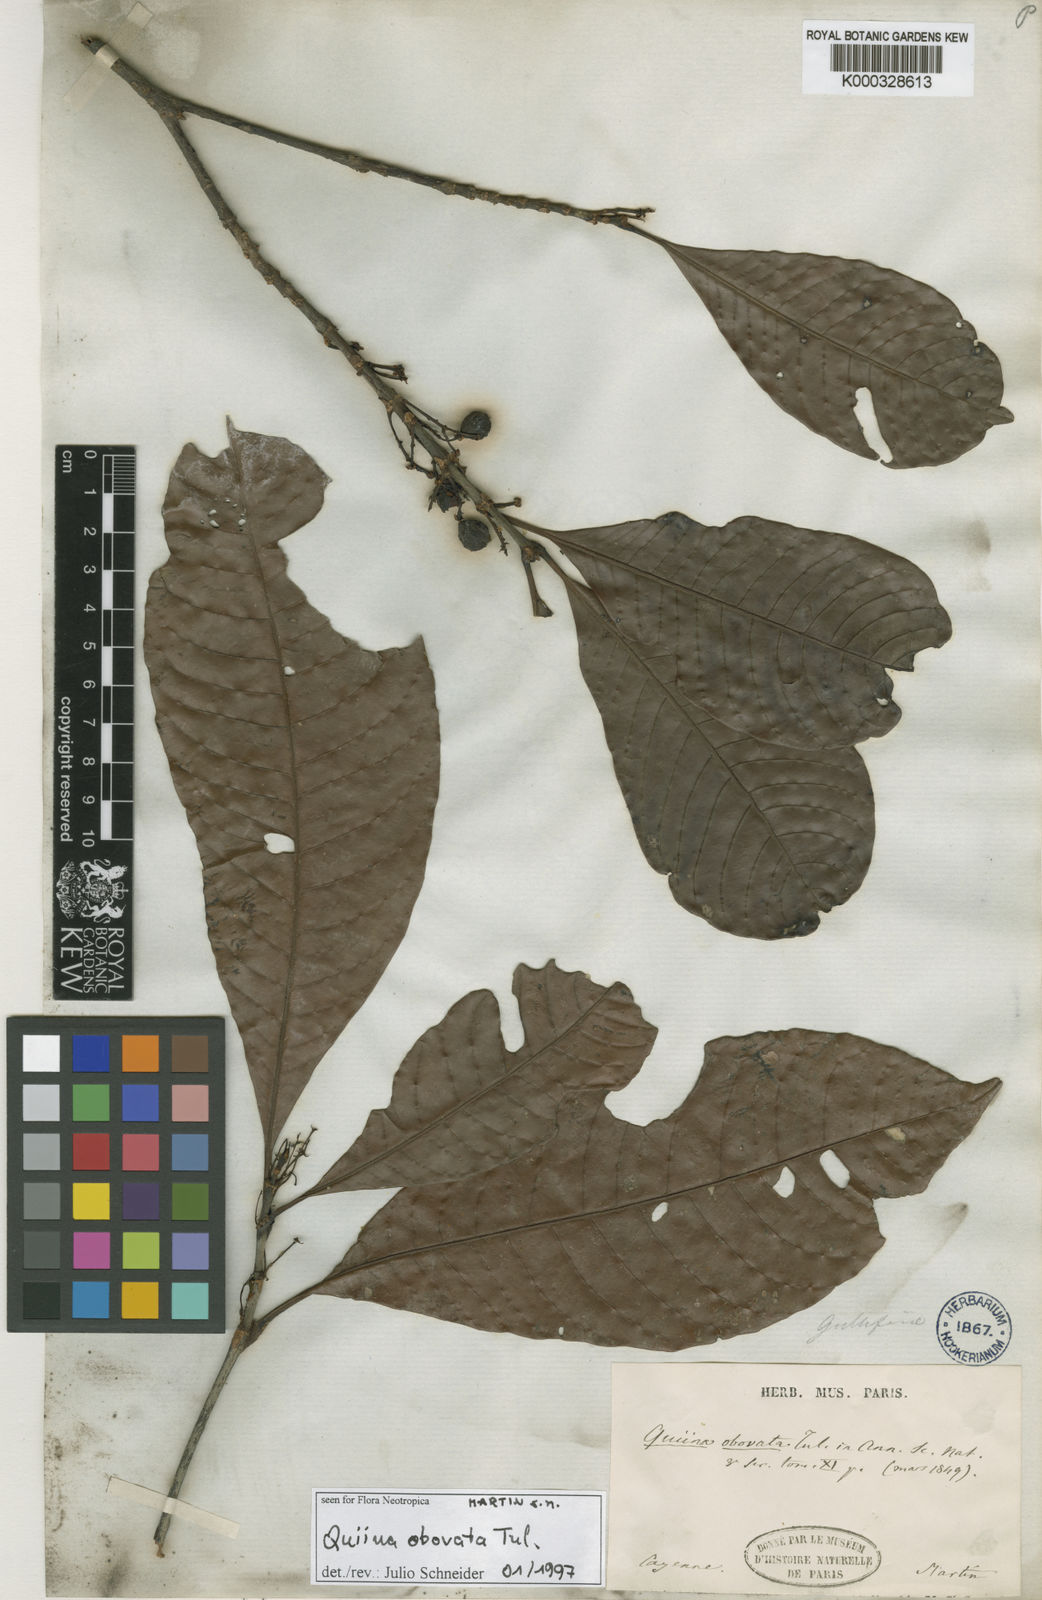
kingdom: Plantae
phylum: Tracheophyta
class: Magnoliopsida
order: Malpighiales
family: Quiinaceae
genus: Quiina
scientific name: Quiina obovata
